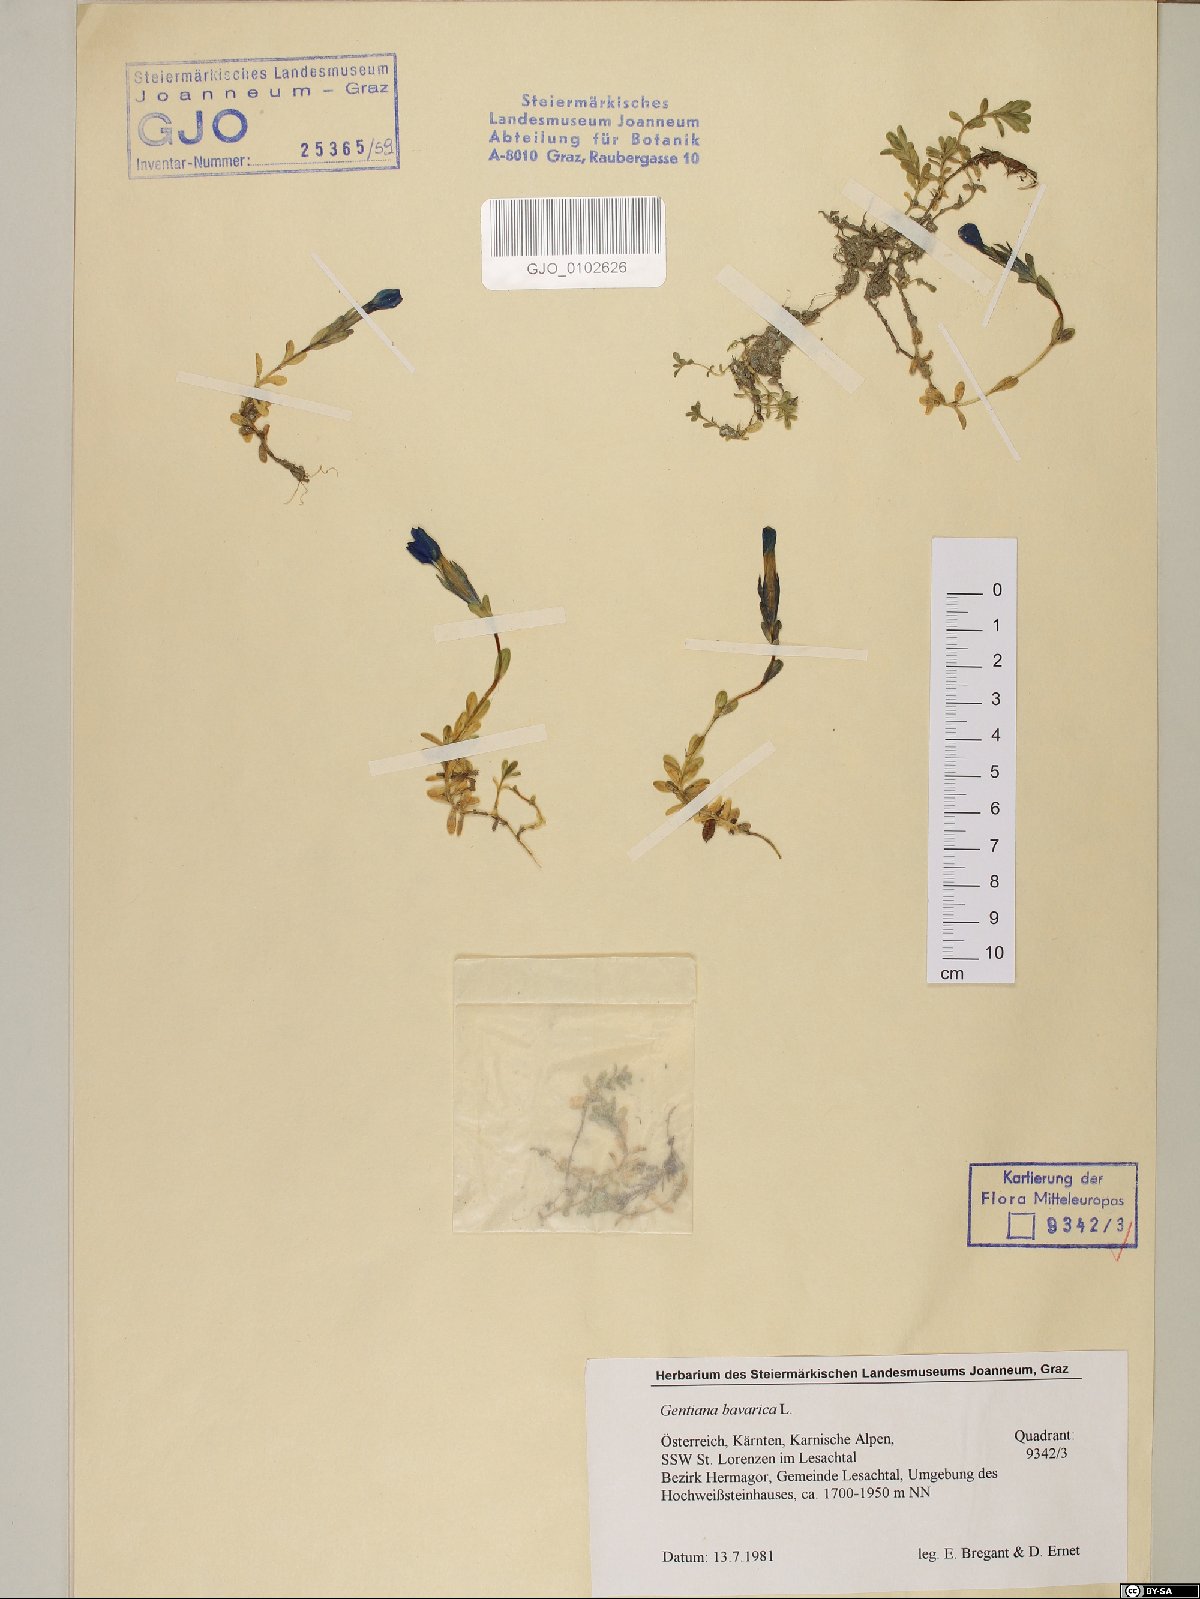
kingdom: Plantae
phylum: Tracheophyta
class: Magnoliopsida
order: Gentianales
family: Gentianaceae
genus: Gentiana
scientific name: Gentiana bavarica
